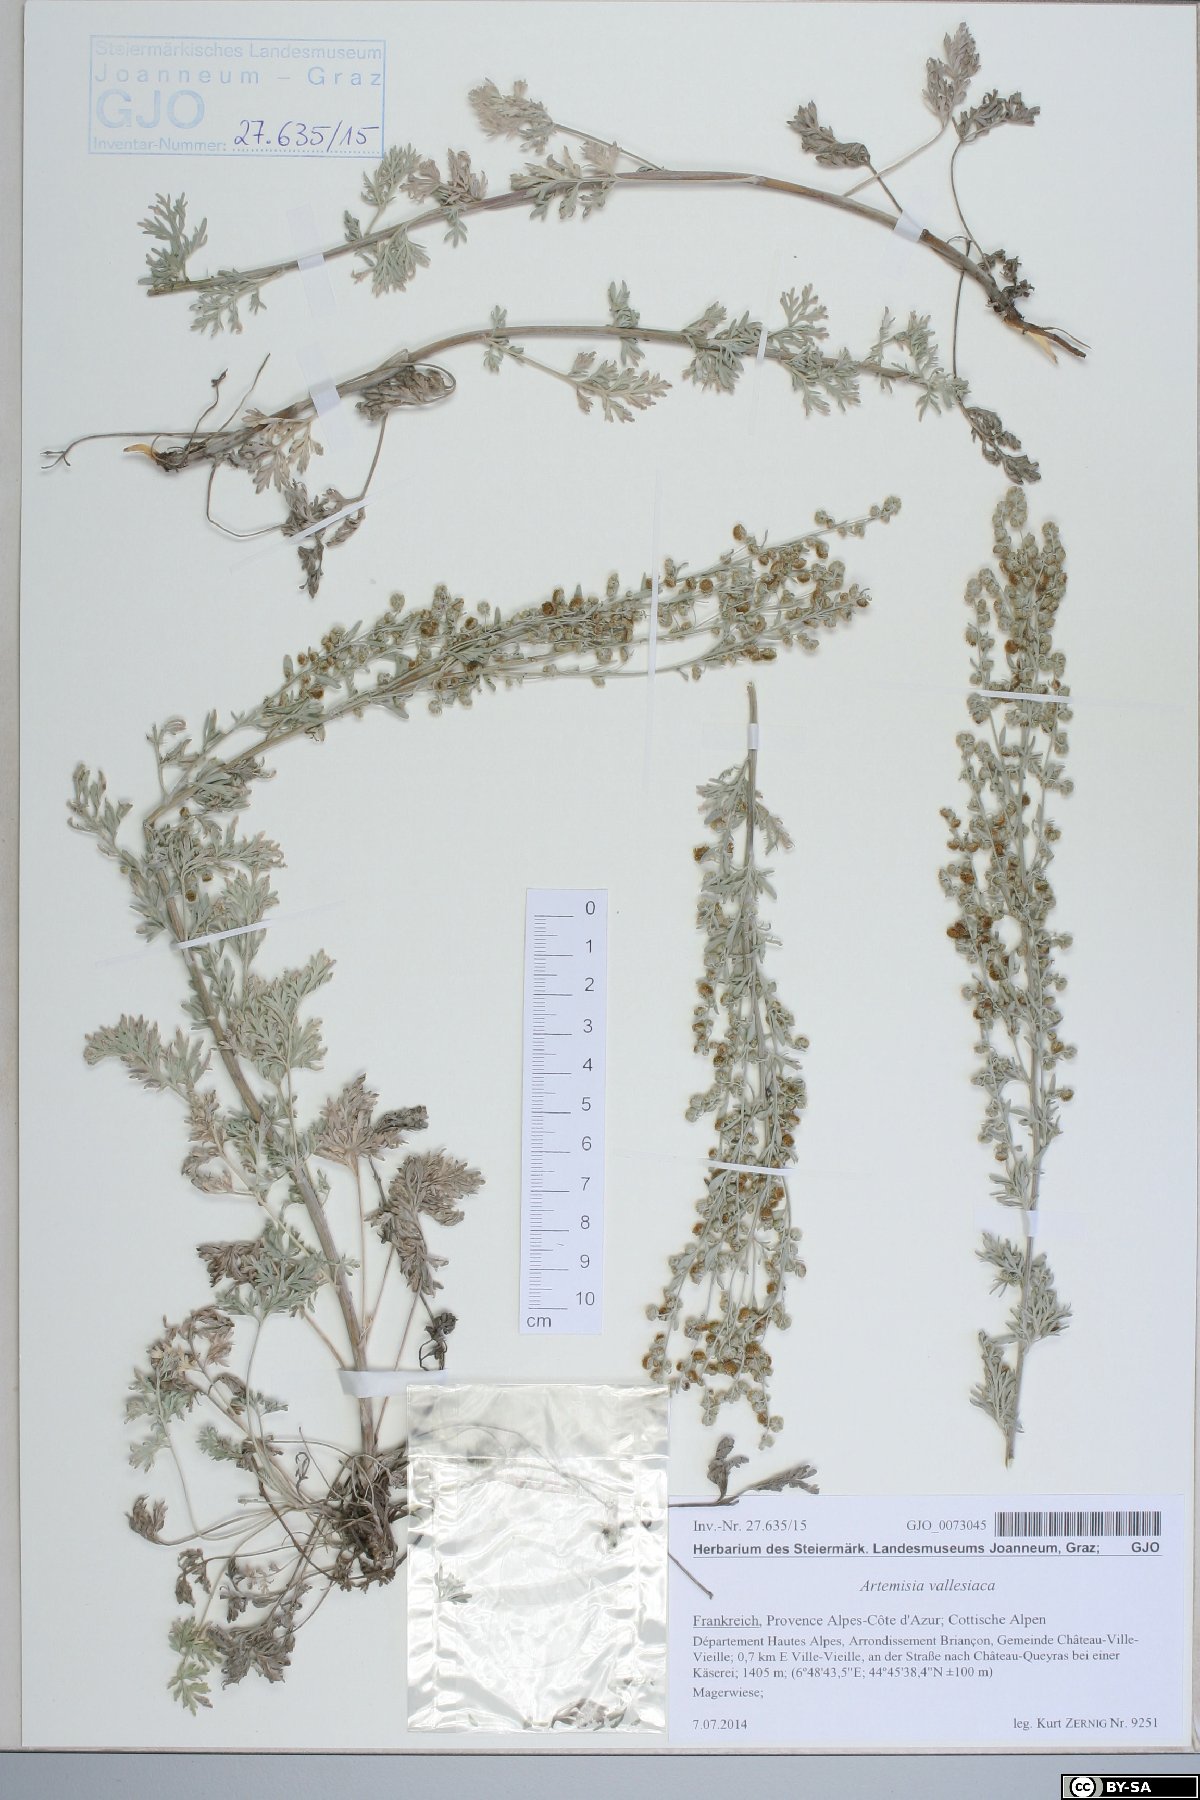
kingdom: Plantae
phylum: Tracheophyta
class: Magnoliopsida
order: Asterales
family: Asteraceae
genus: Artemisia
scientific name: Artemisia vallesiaca
